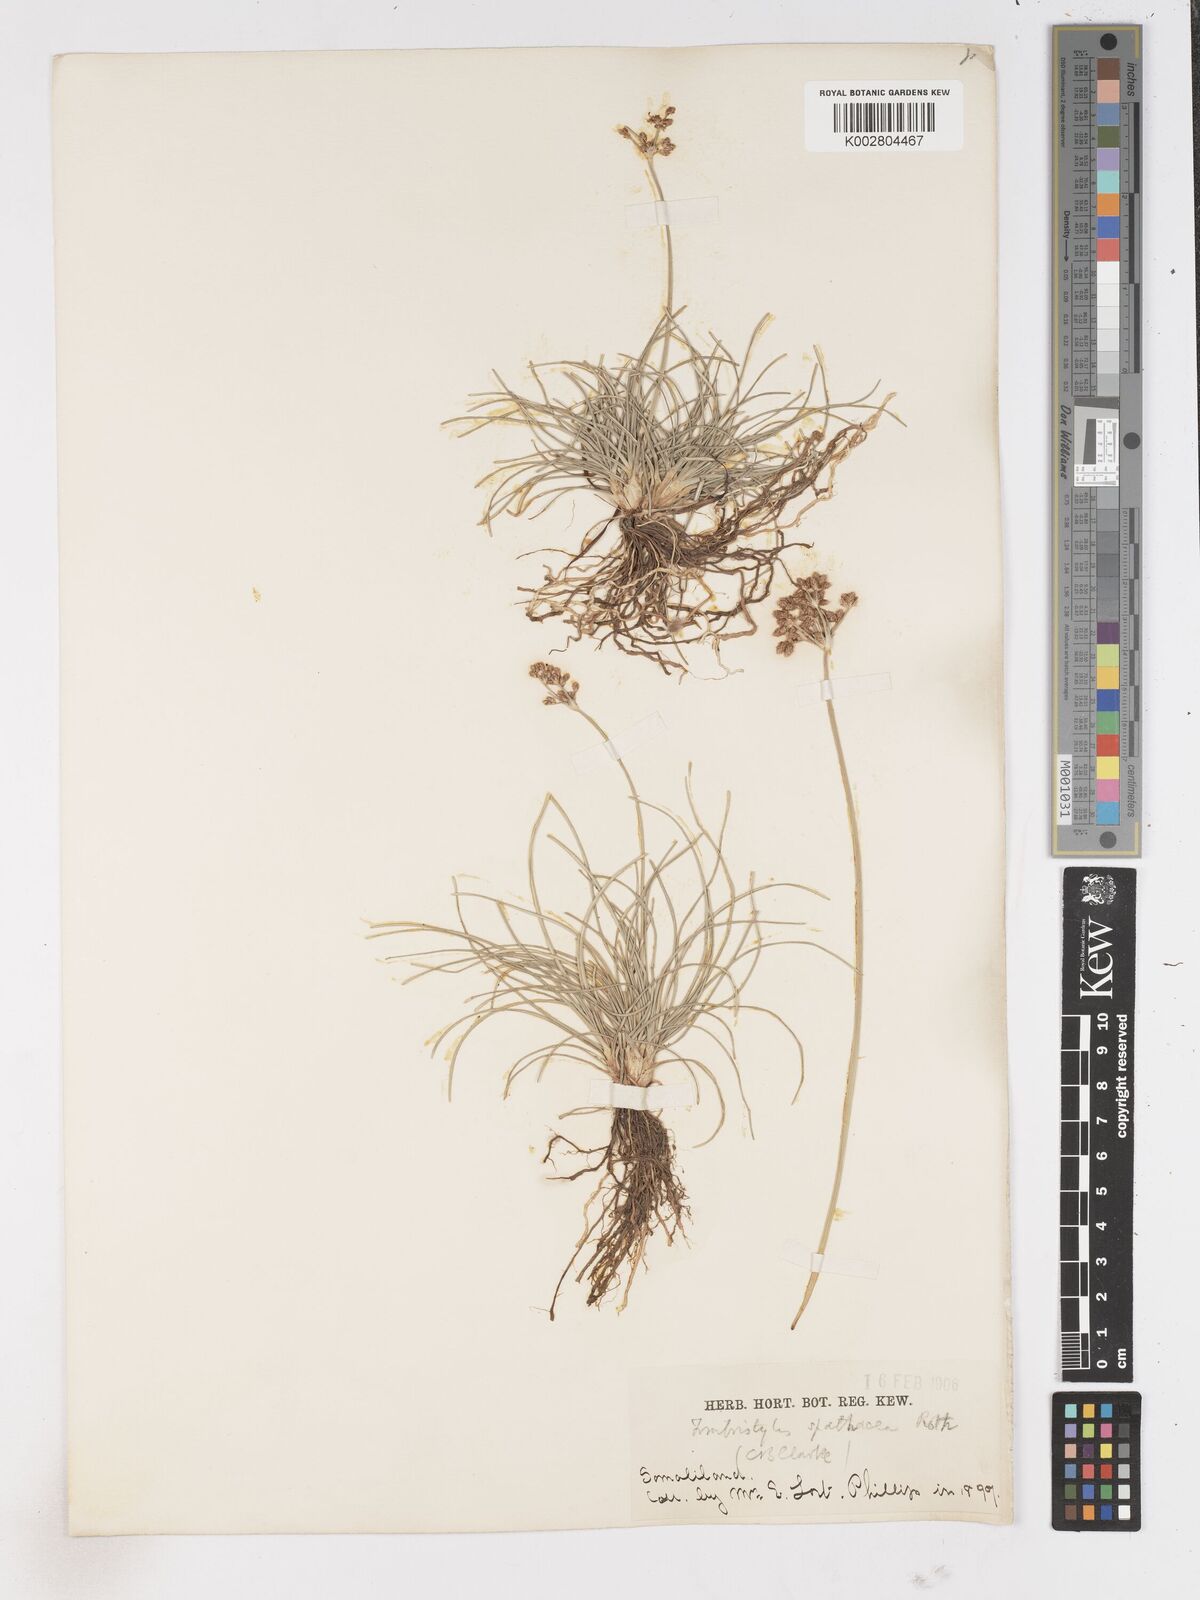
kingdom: Plantae
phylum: Tracheophyta
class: Liliopsida
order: Poales
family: Cyperaceae
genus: Fimbristylis
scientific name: Fimbristylis cymosa
